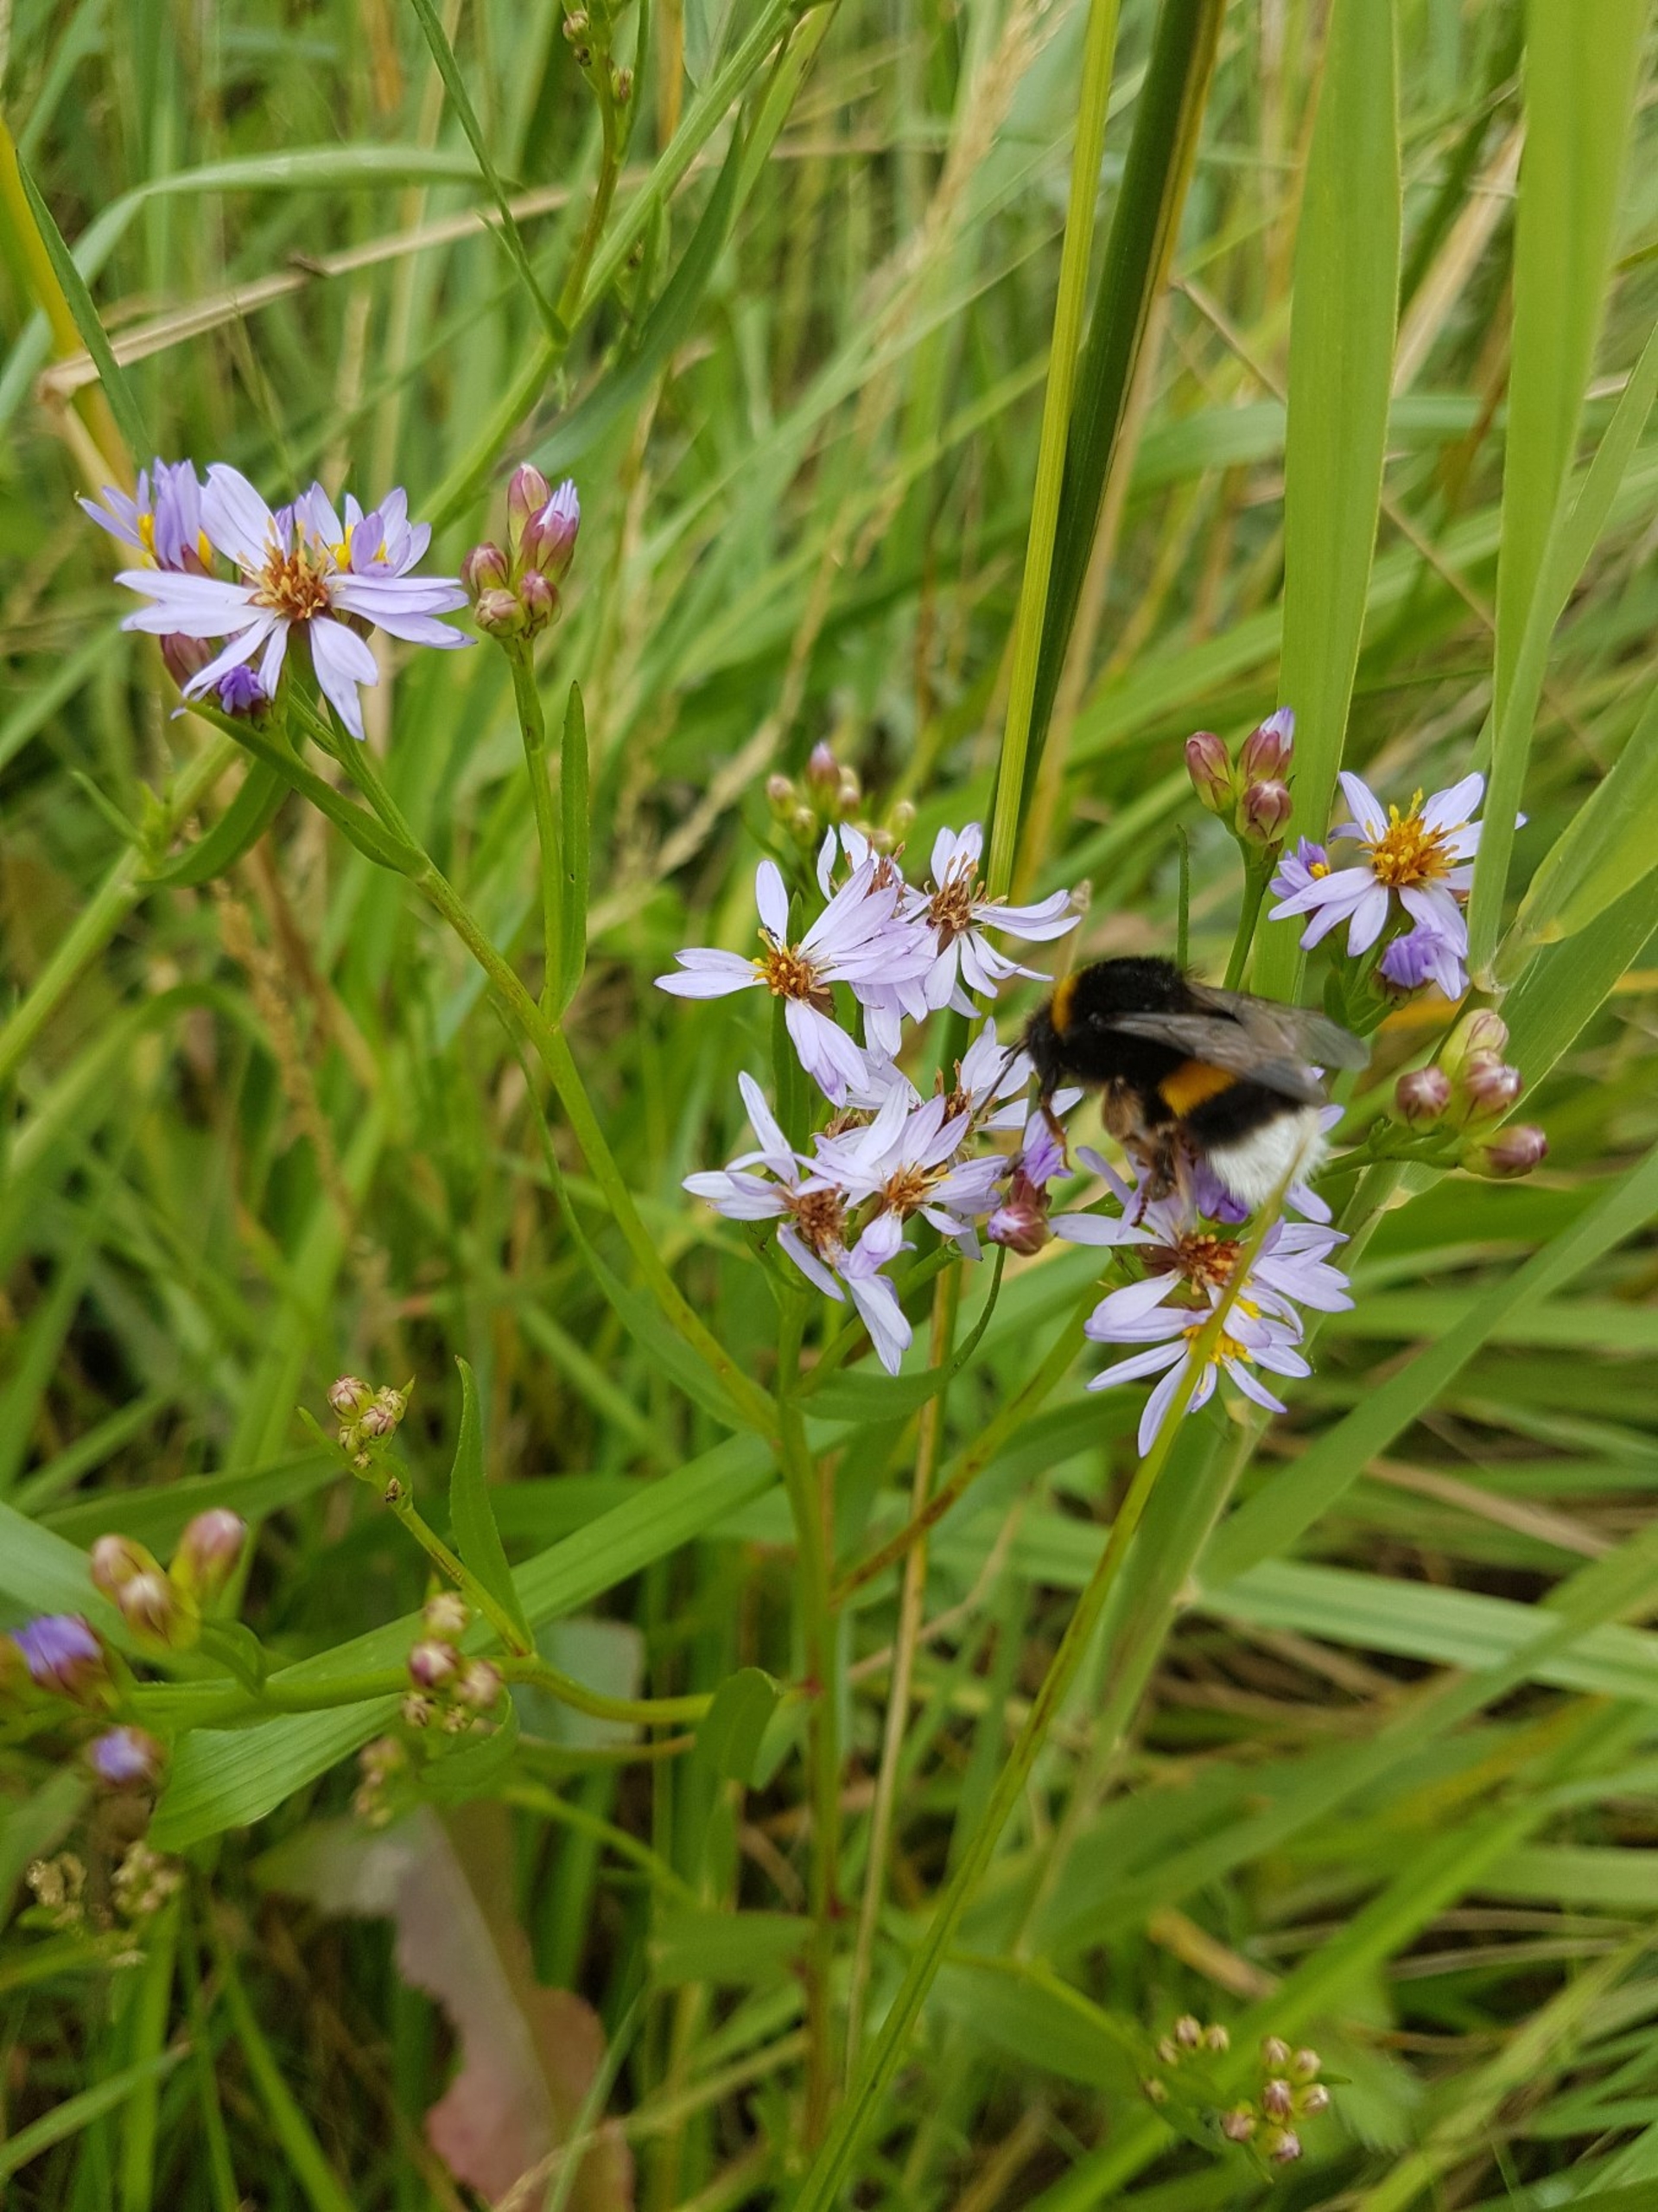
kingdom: Plantae
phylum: Tracheophyta
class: Magnoliopsida
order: Asterales
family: Asteraceae
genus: Tripolium
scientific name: Tripolium pannonicum
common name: Strandasters
